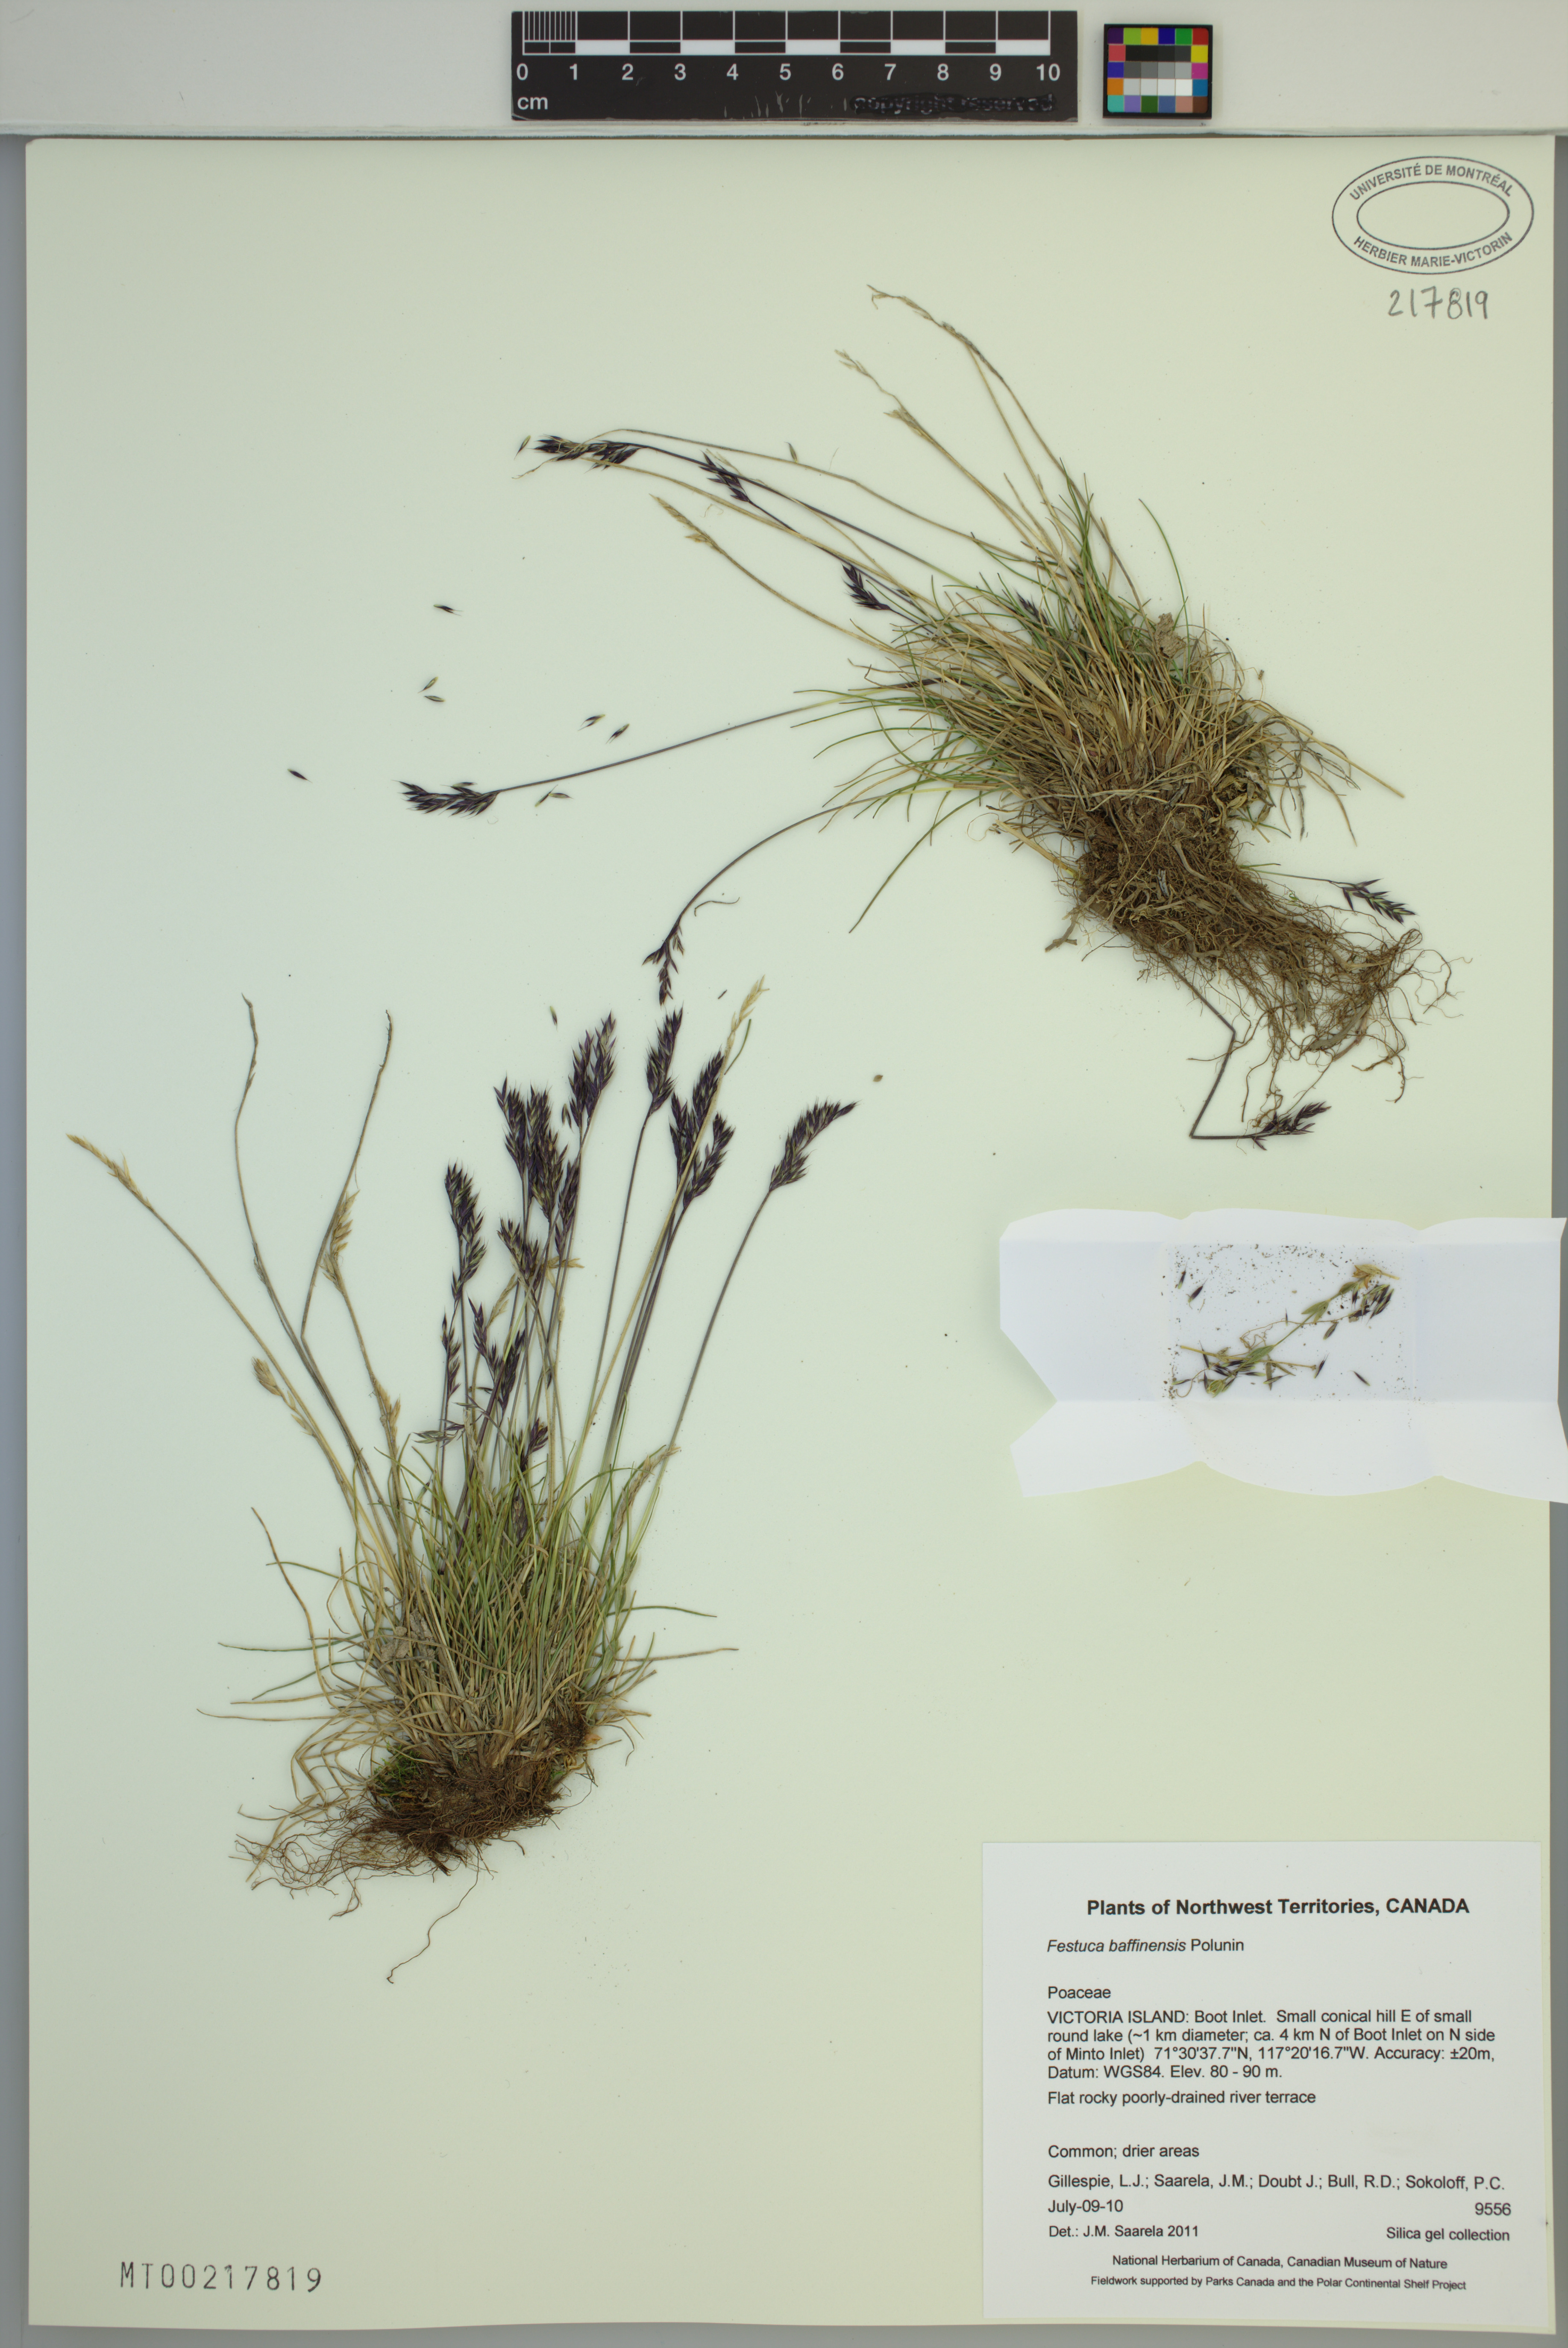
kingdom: Plantae
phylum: Tracheophyta
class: Liliopsida
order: Poales
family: Poaceae
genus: Festuca
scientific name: Festuca baffinensis
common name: Baffin island fescue
